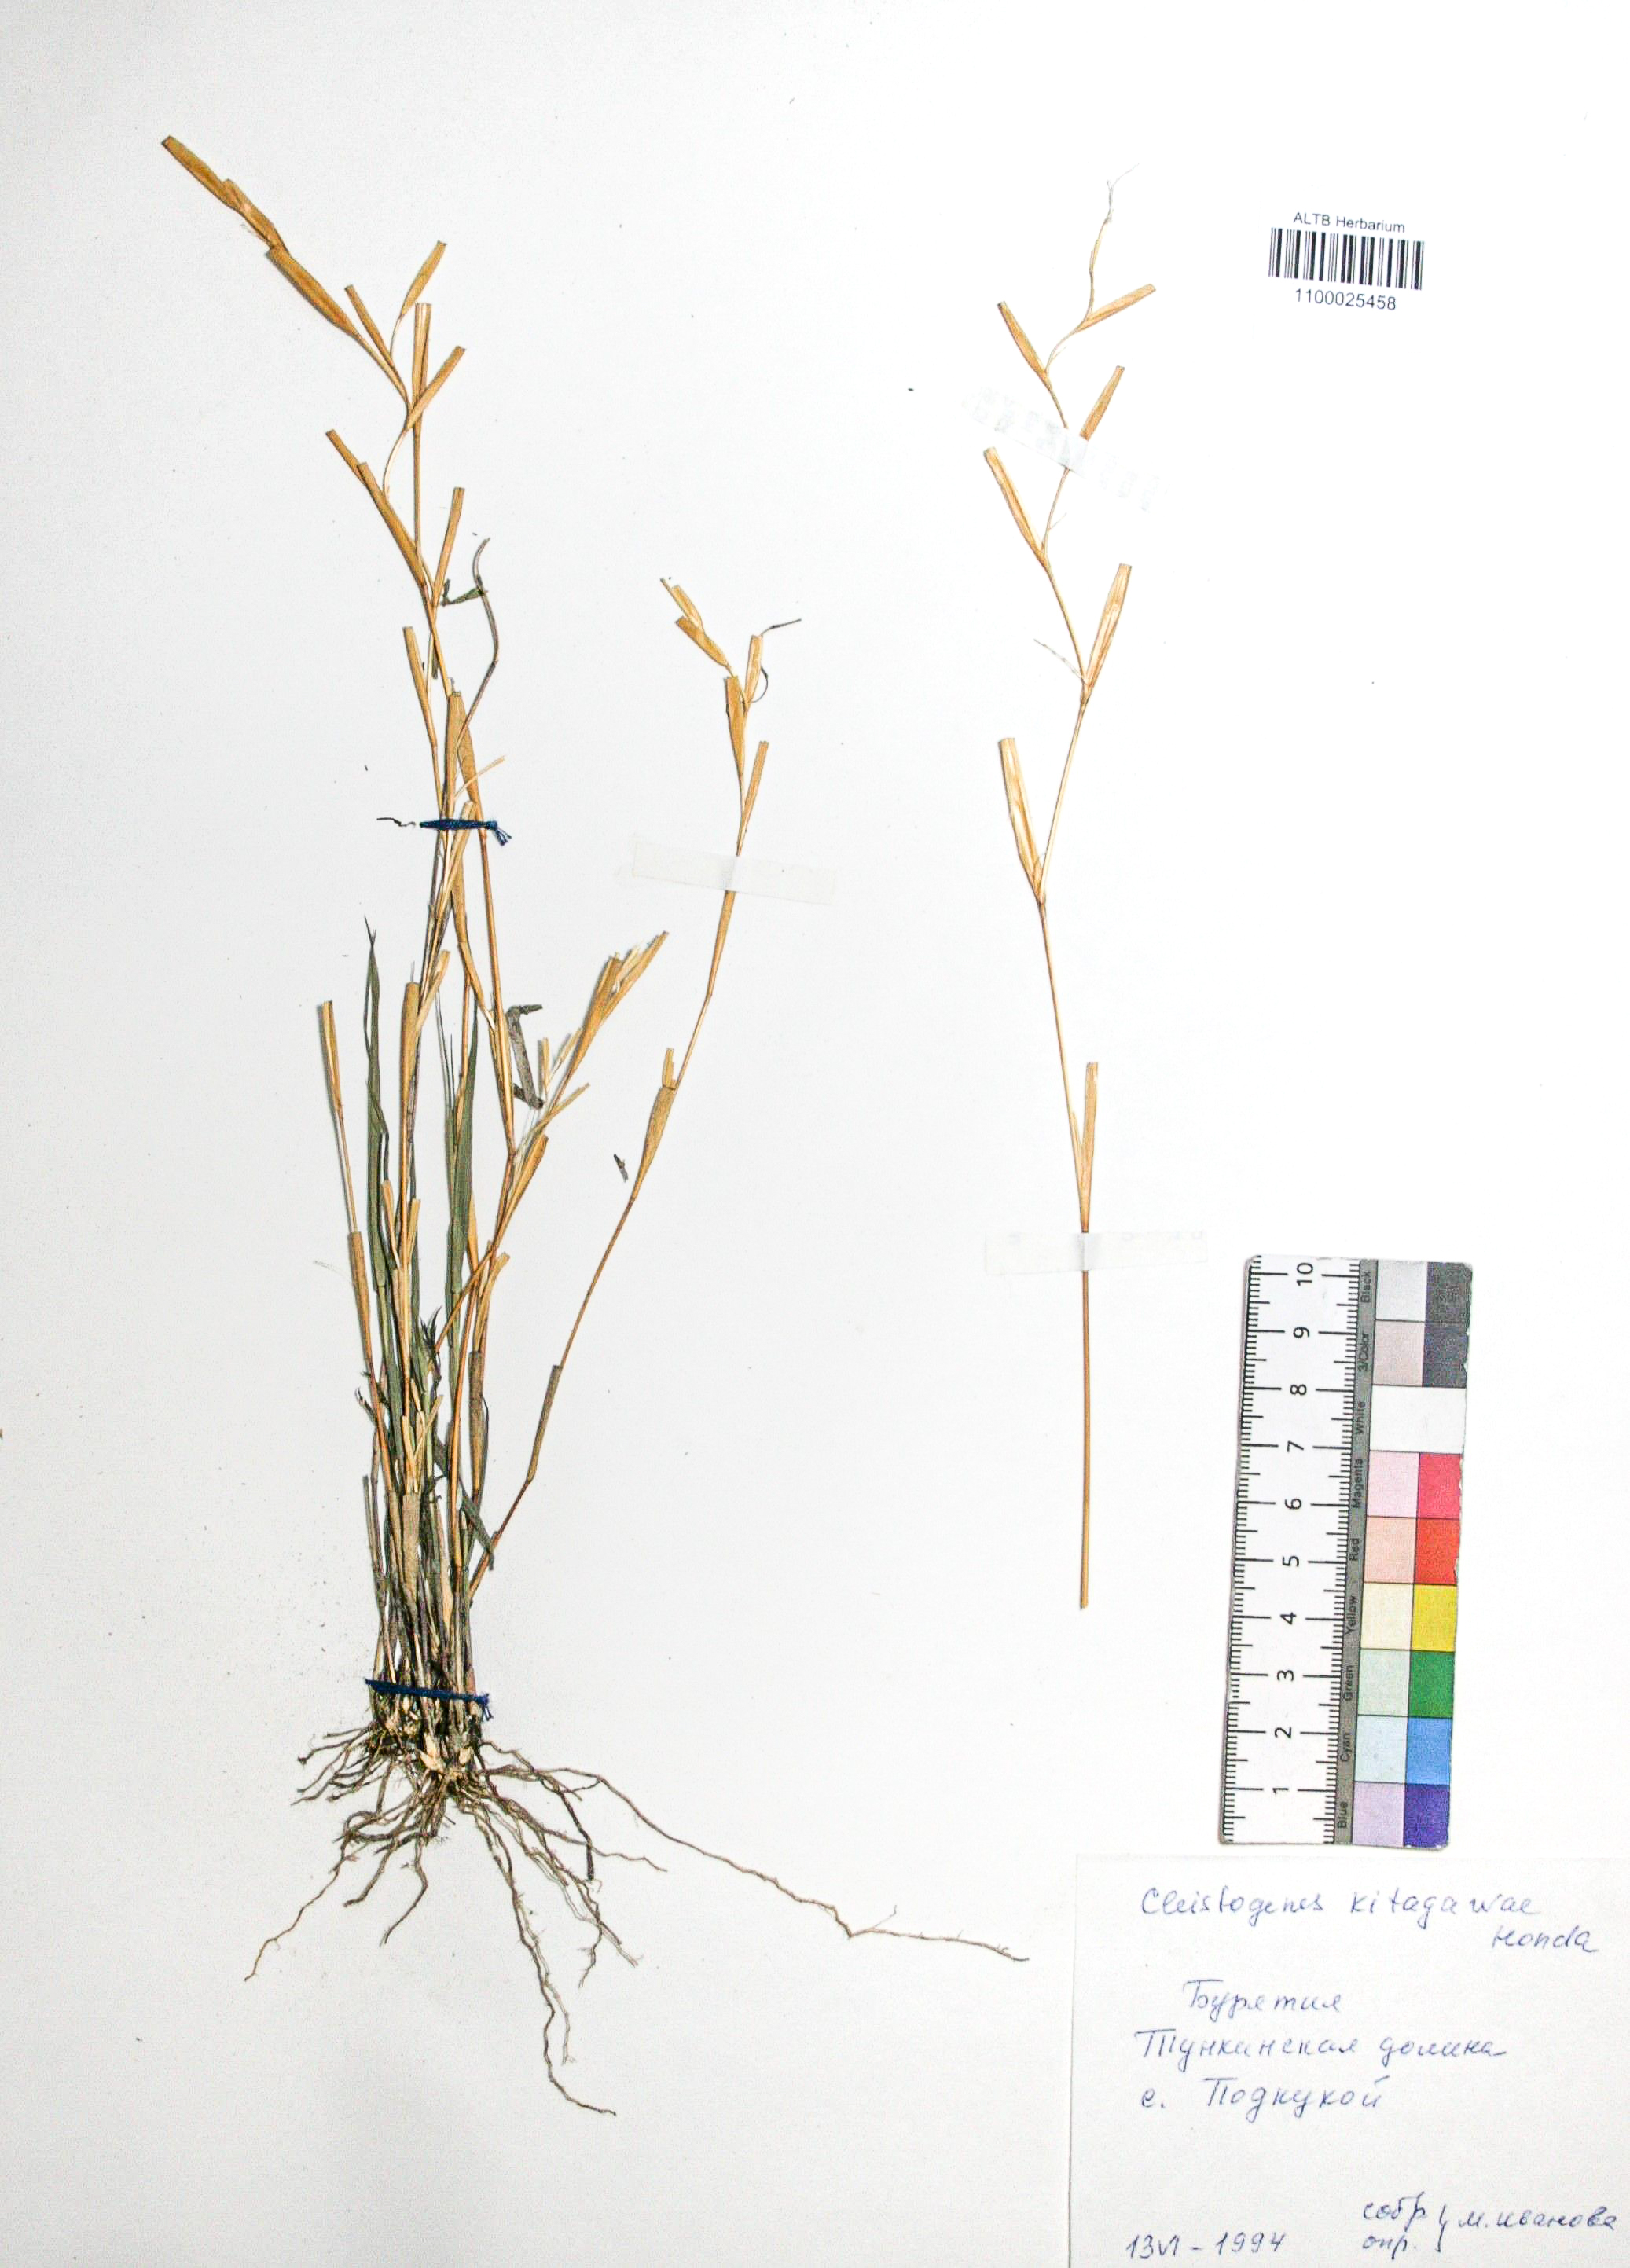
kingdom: Plantae
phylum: Tracheophyta
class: Liliopsida
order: Poales
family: Poaceae
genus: Cleistogenes
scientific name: Cleistogenes kitagawae
